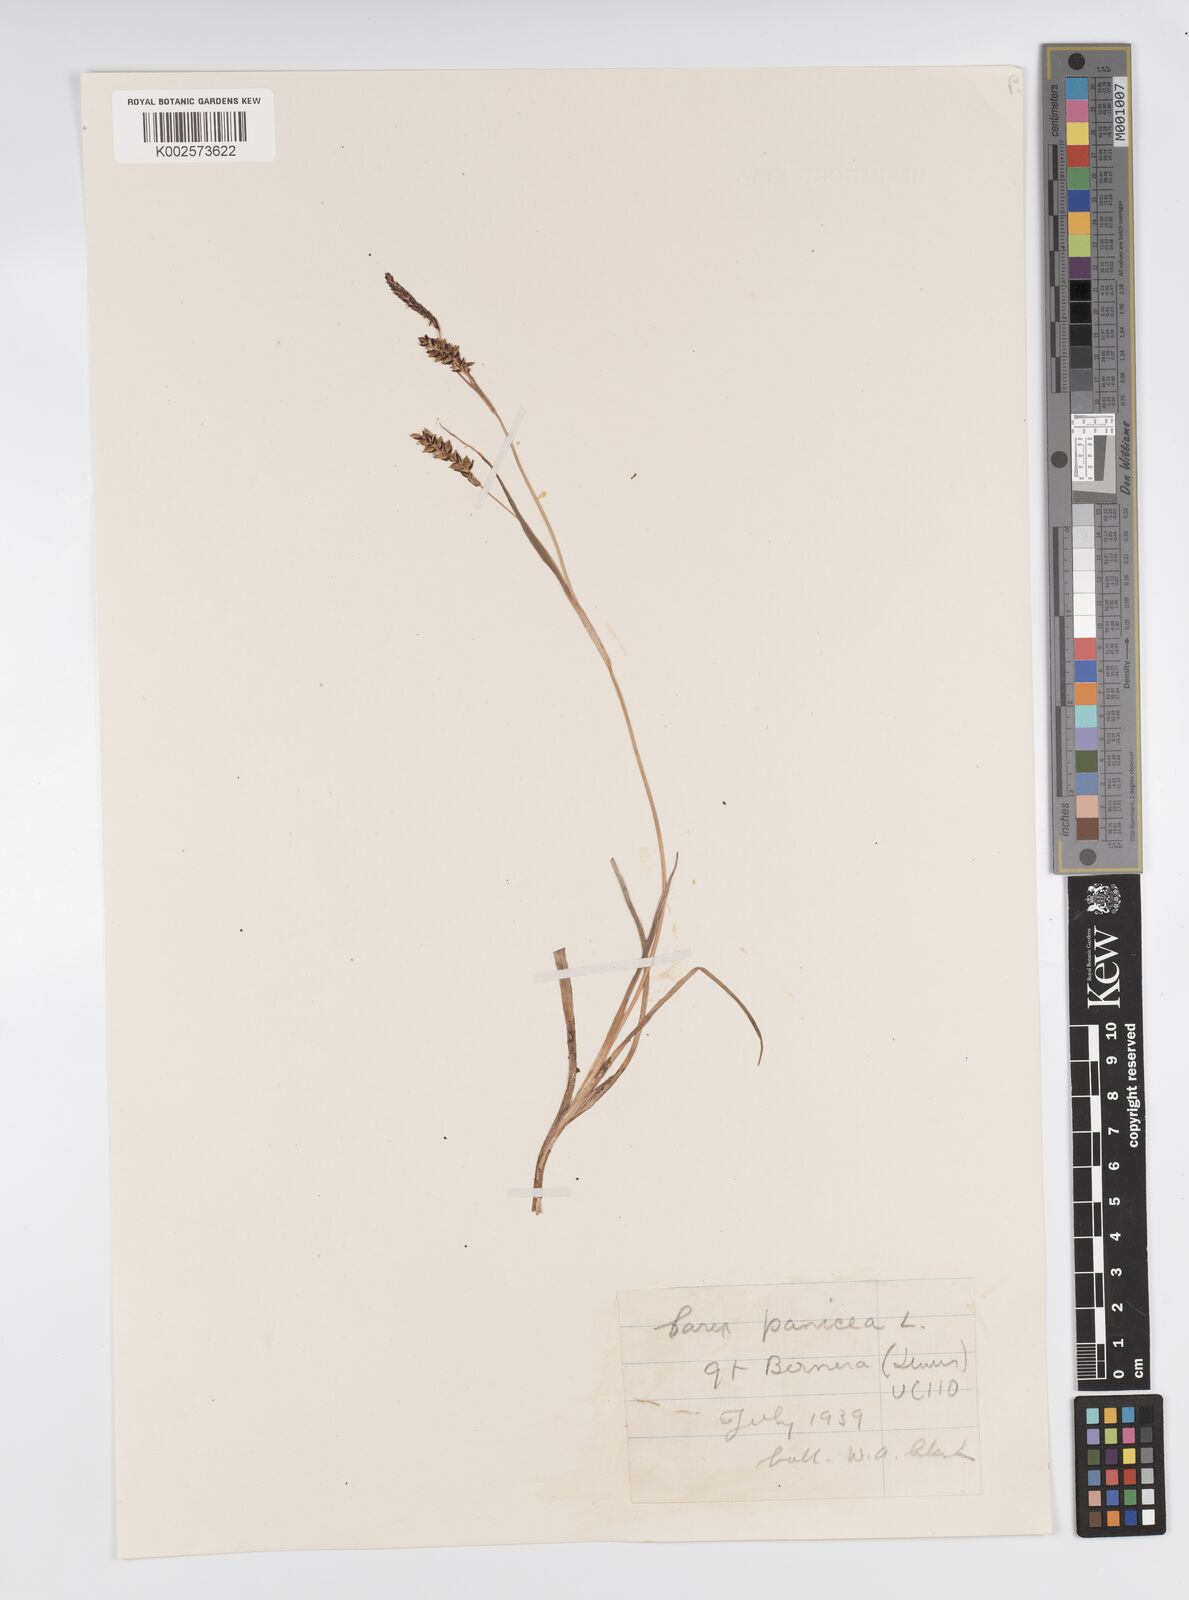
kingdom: Plantae
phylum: Tracheophyta
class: Liliopsida
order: Poales
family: Cyperaceae
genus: Carex
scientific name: Carex panicea
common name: Carnation sedge
